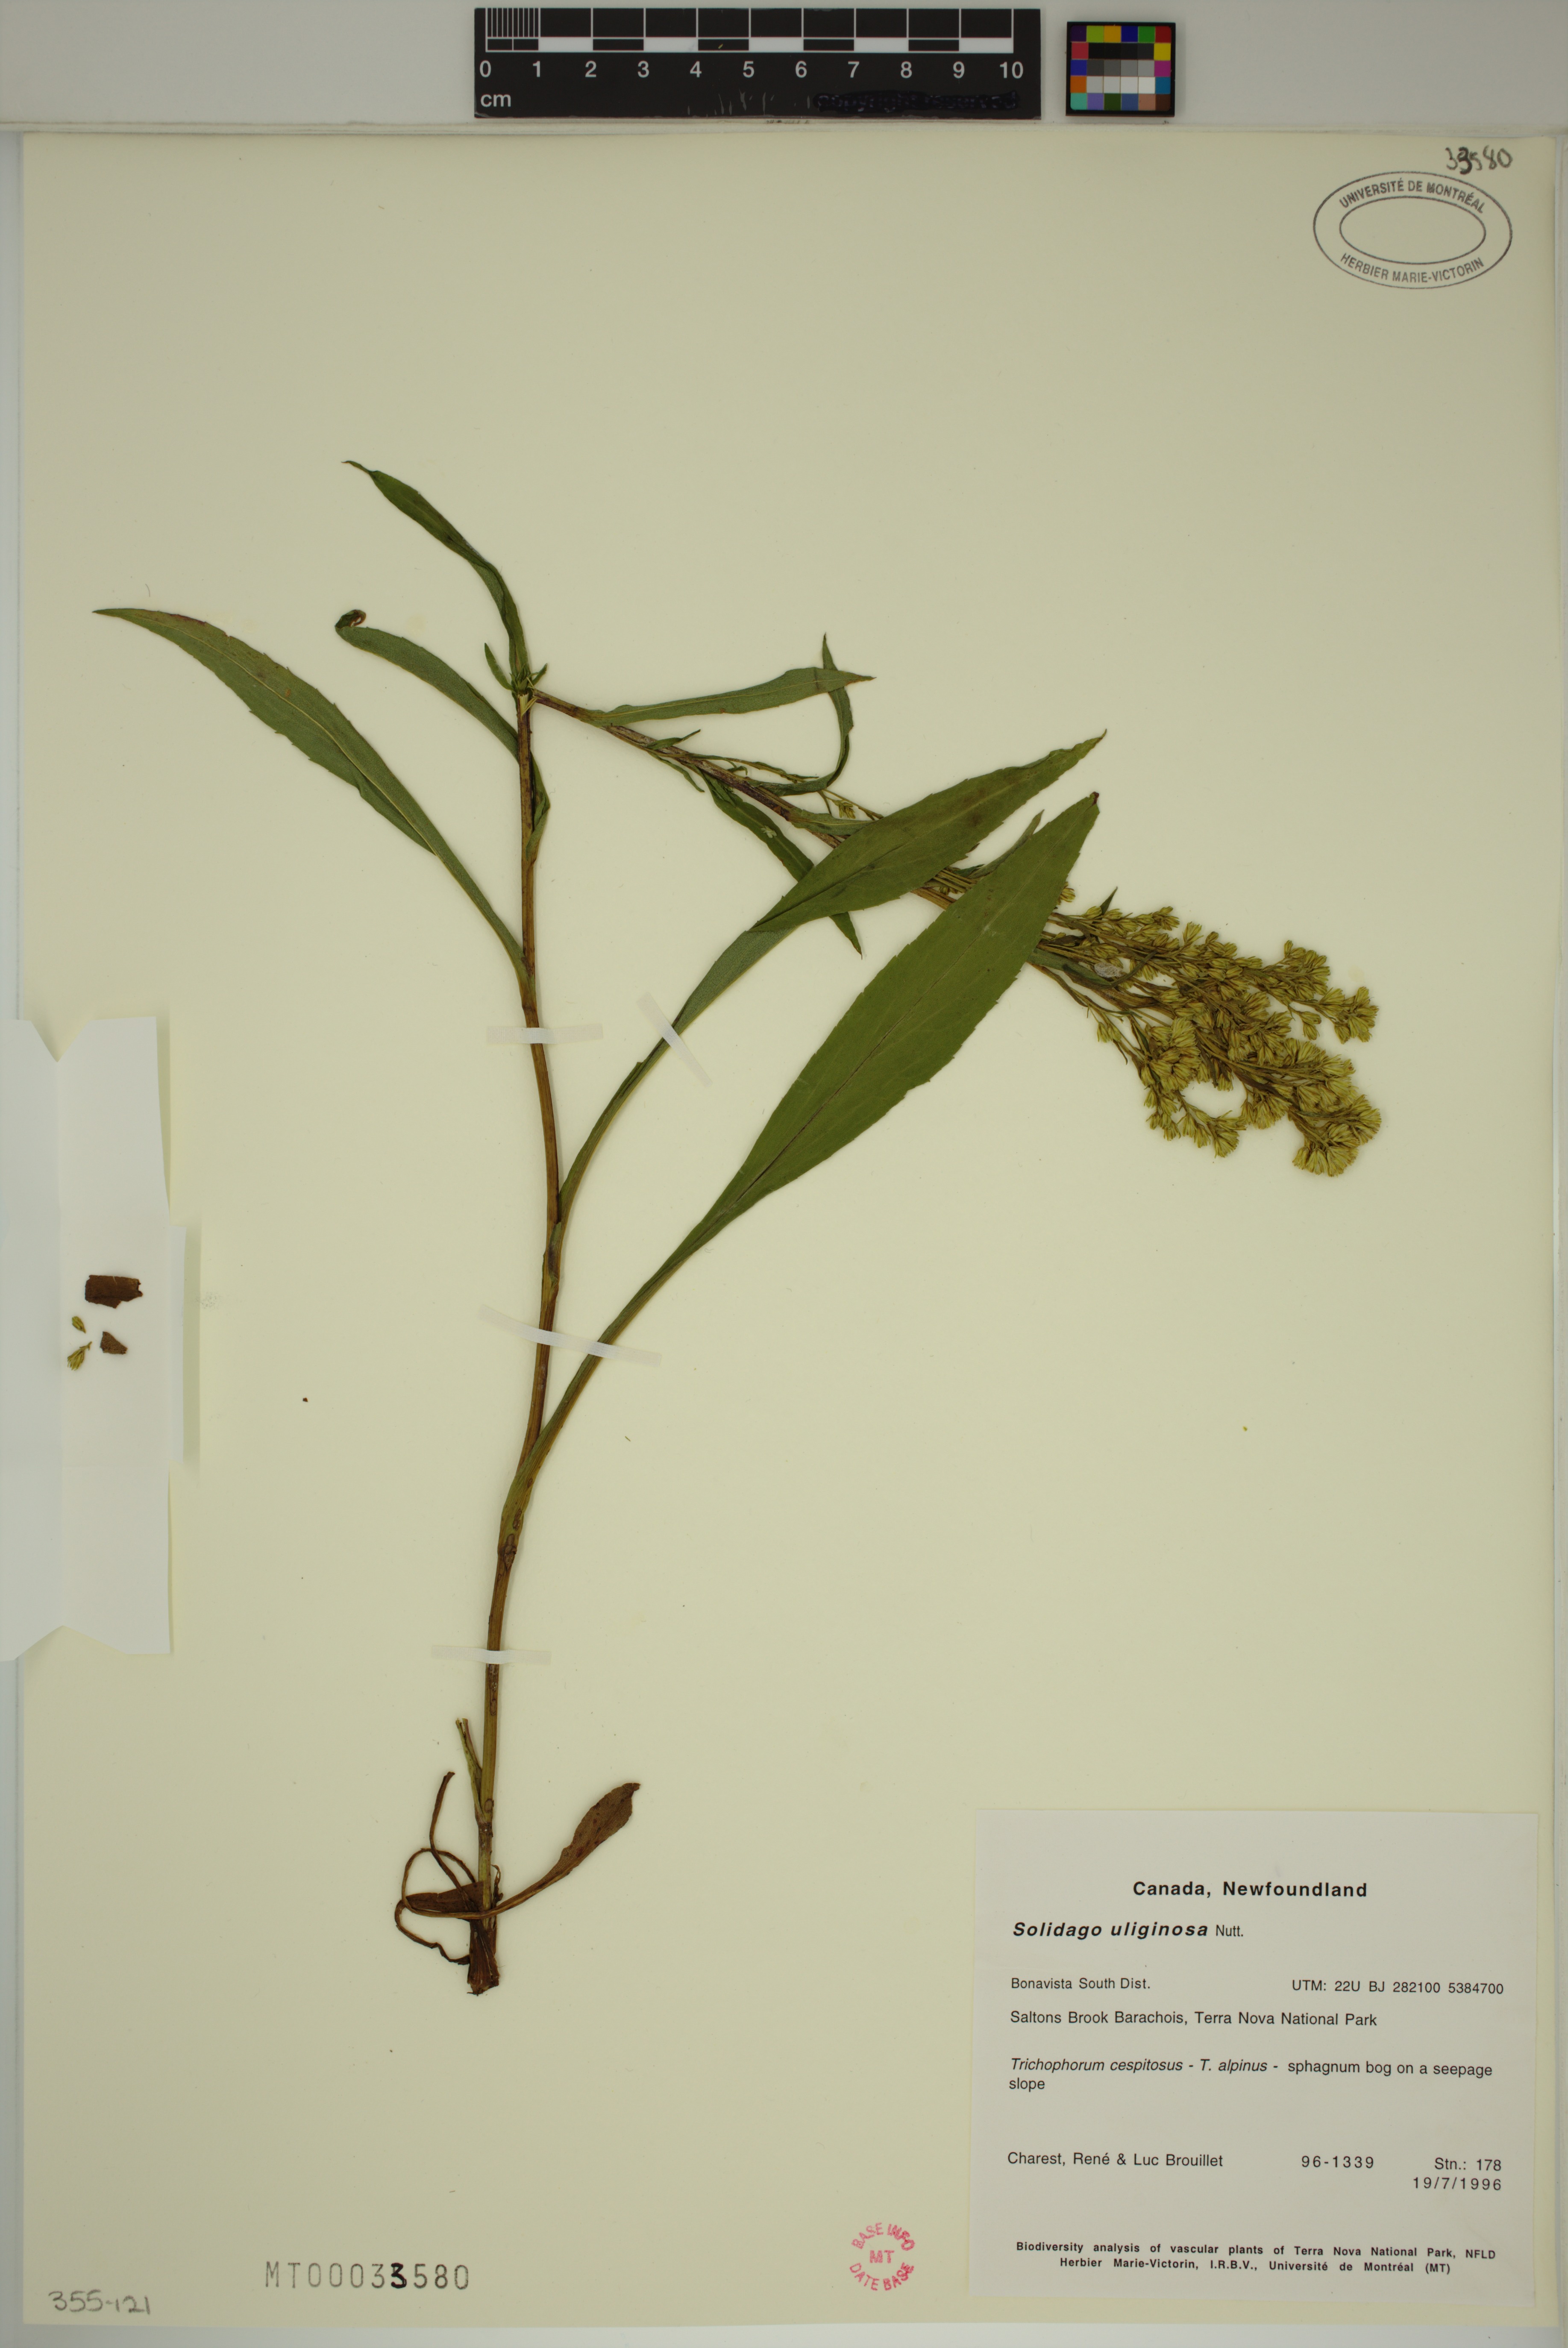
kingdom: Plantae
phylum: Tracheophyta
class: Magnoliopsida
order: Asterales
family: Asteraceae
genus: Solidago
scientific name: Solidago uliginosa
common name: Bog goldenrod
